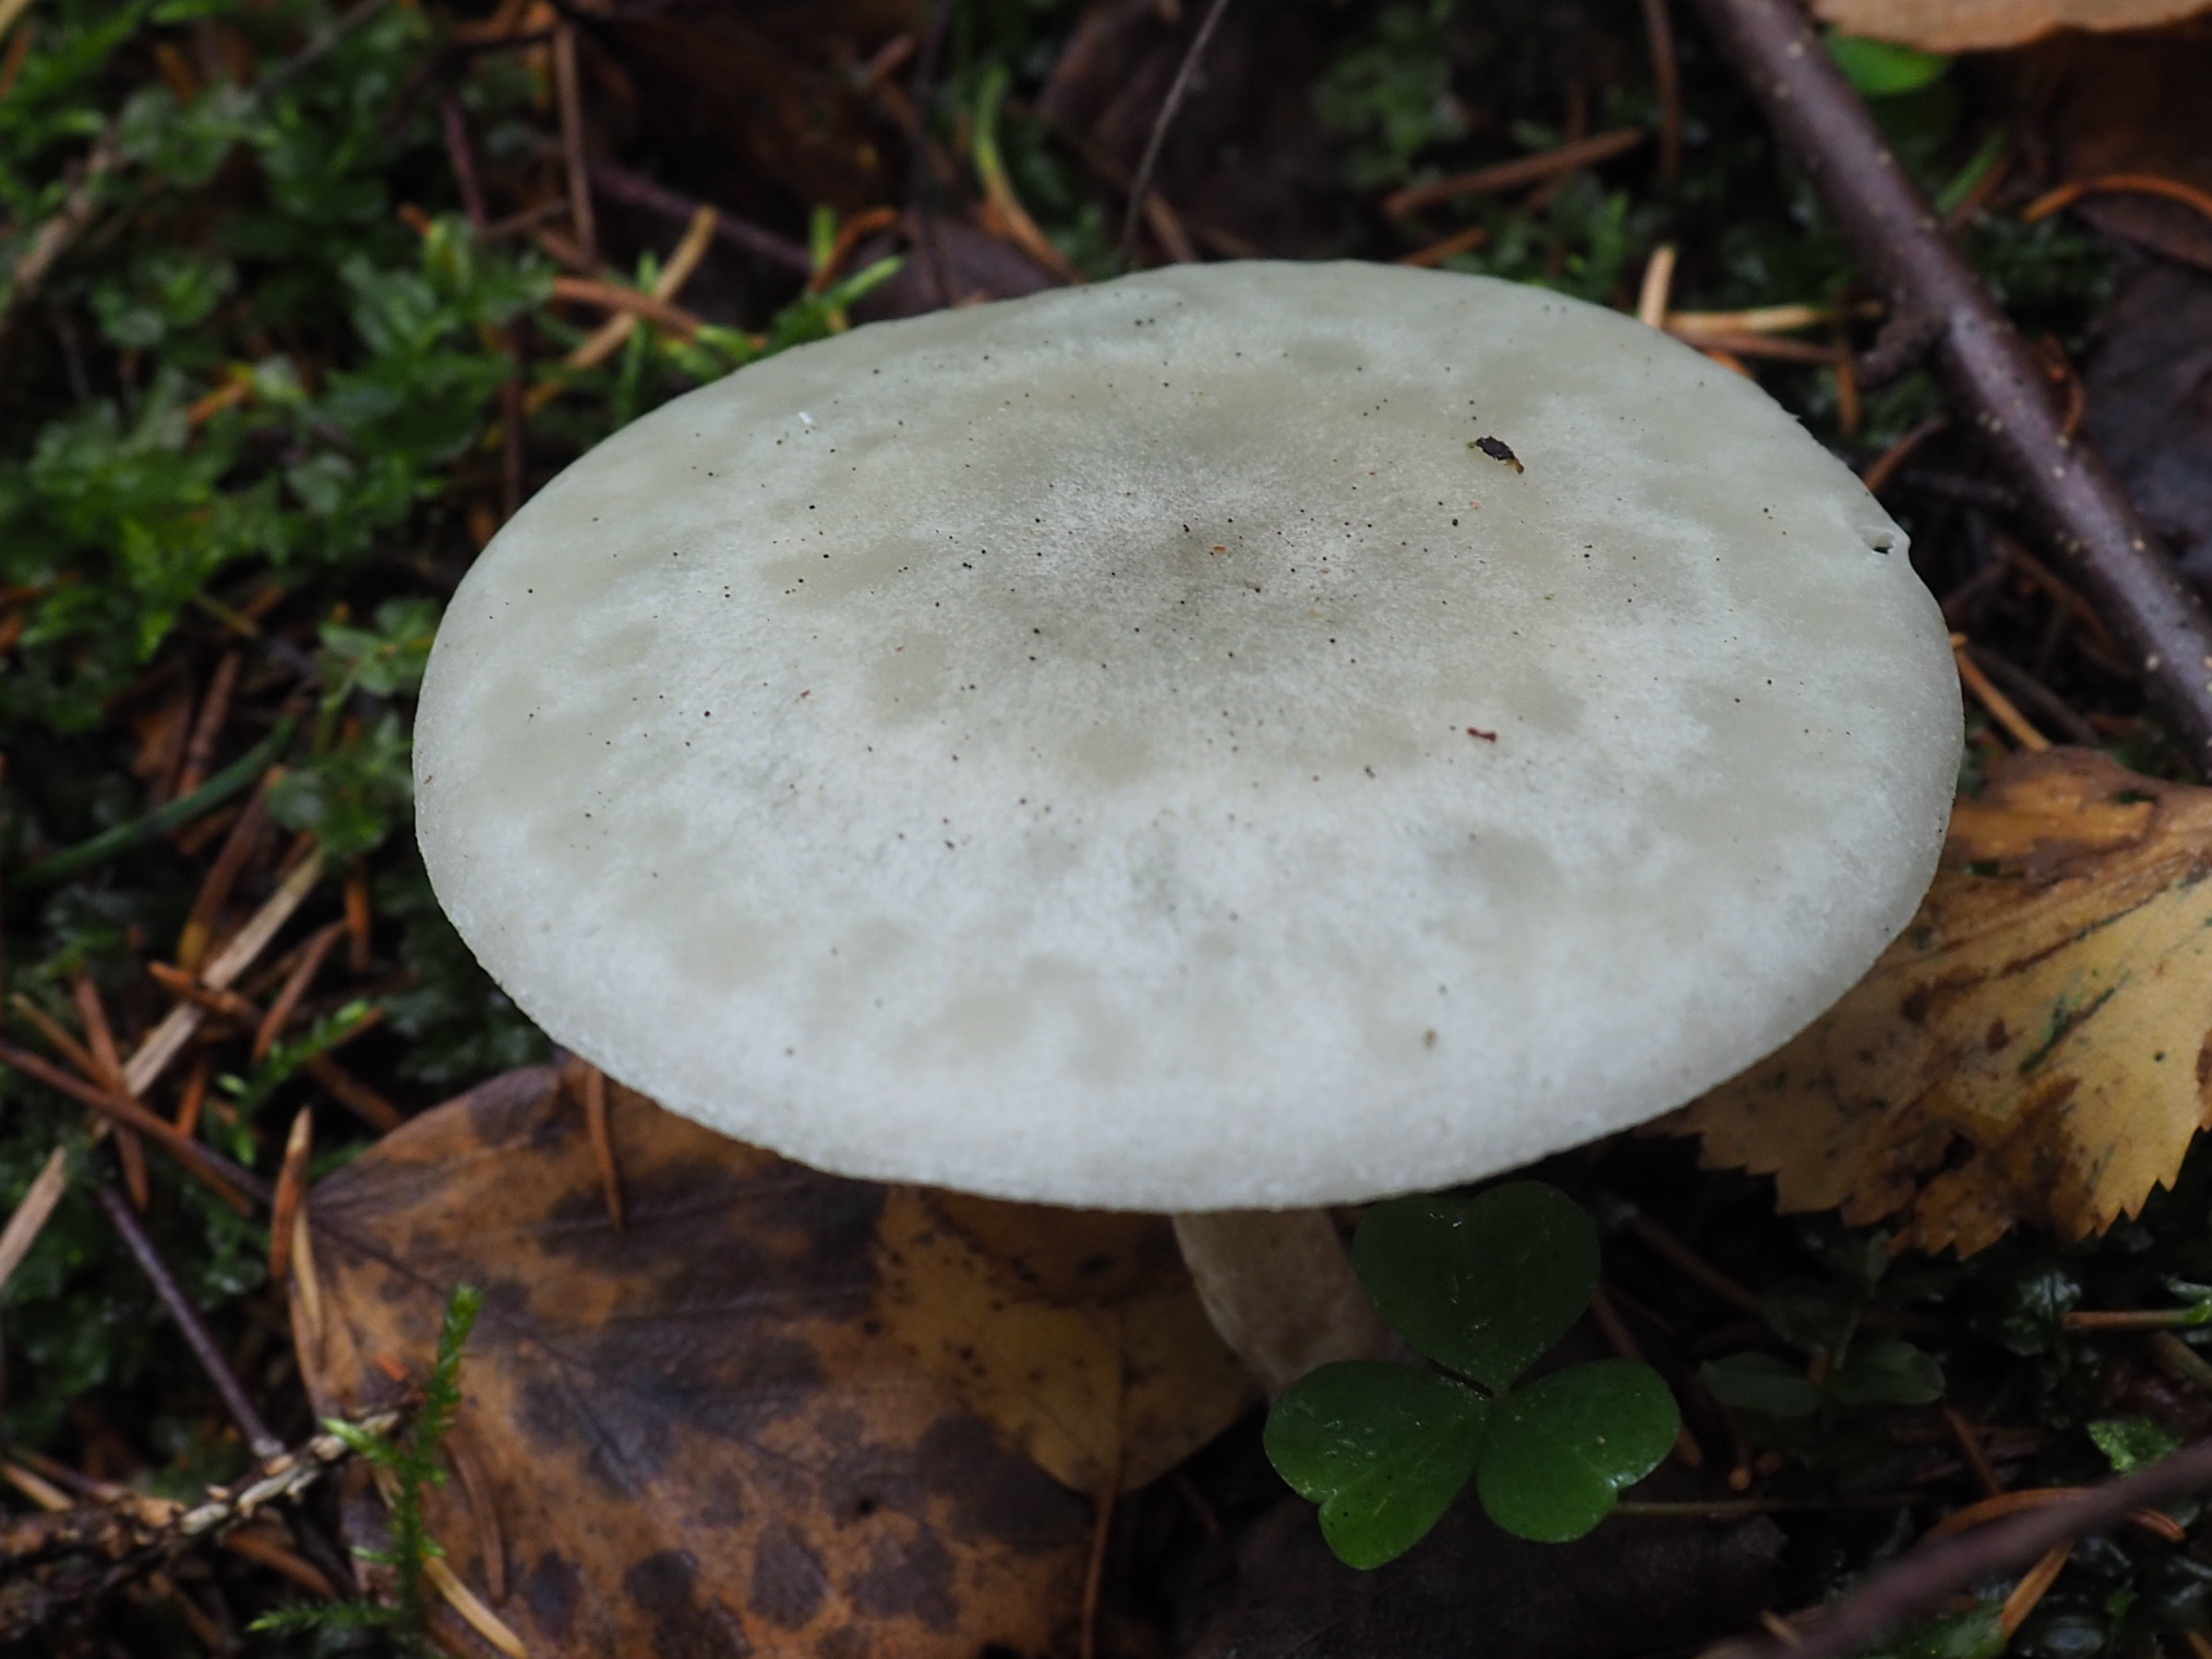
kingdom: Fungi
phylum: Basidiomycota
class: Agaricomycetes
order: Agaricales
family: Tricholomataceae
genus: Clitocybe
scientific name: Clitocybe odora
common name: Aniseed funnel
